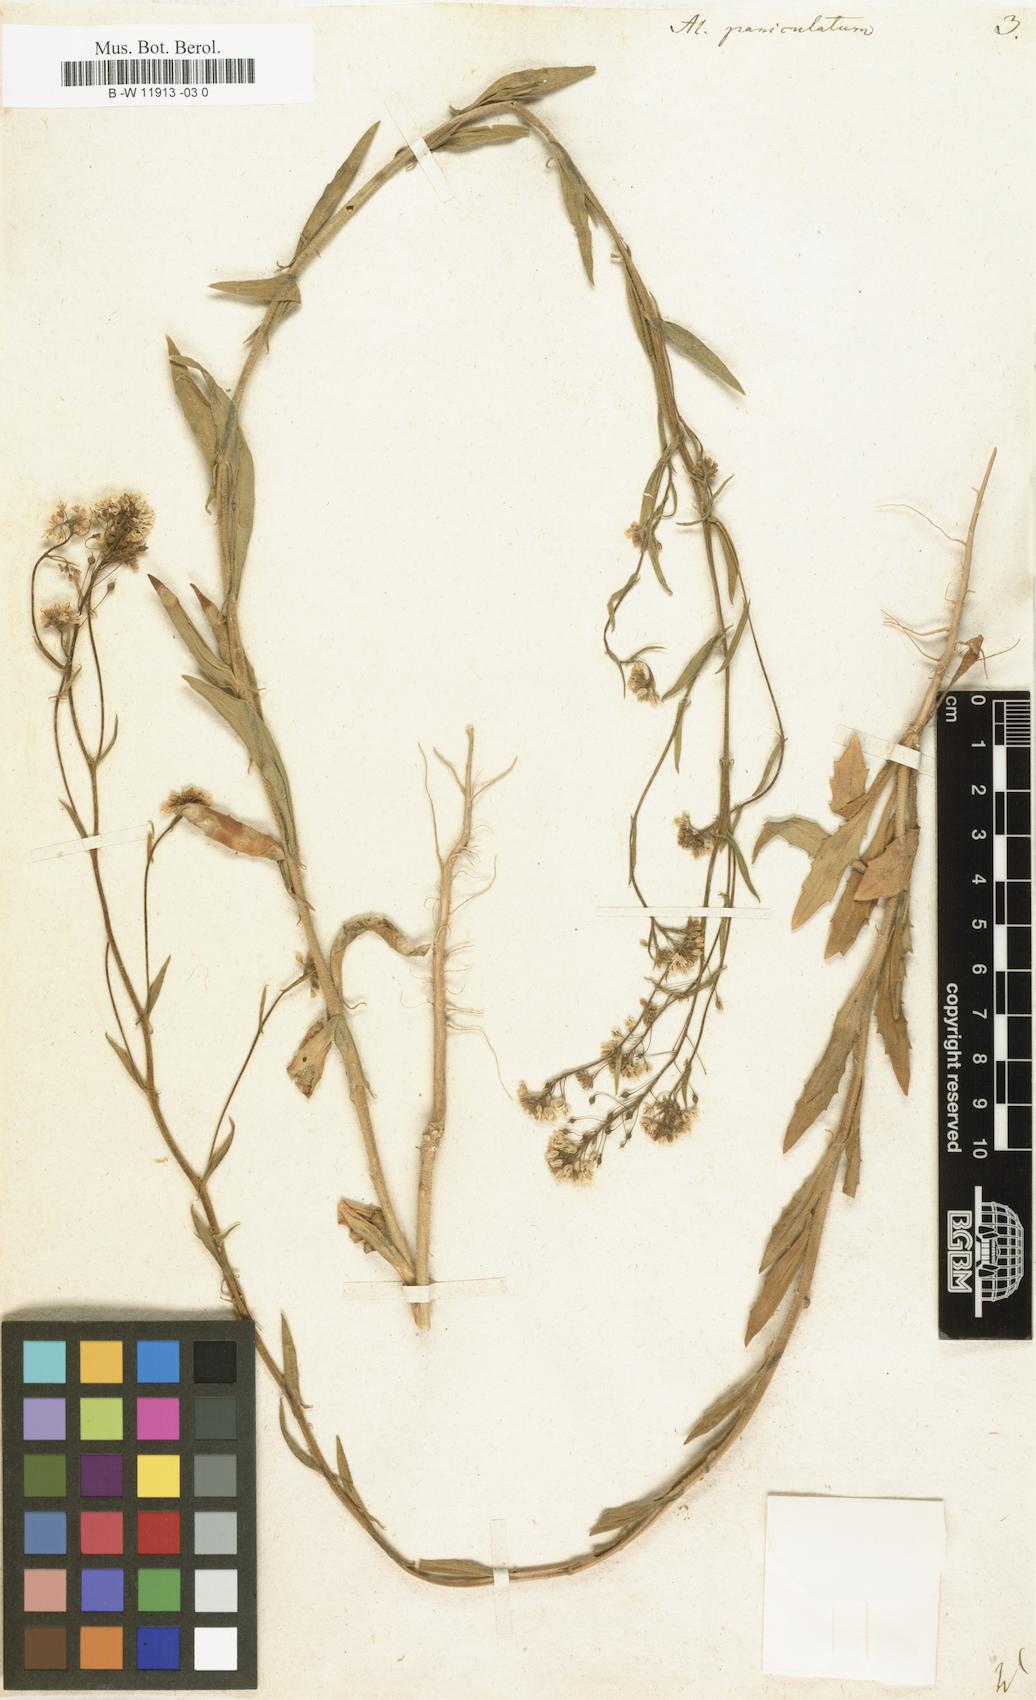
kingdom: Plantae
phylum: Tracheophyta
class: Magnoliopsida
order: Brassicales
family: Brassicaceae
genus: Lutzia
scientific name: Lutzia cretica
